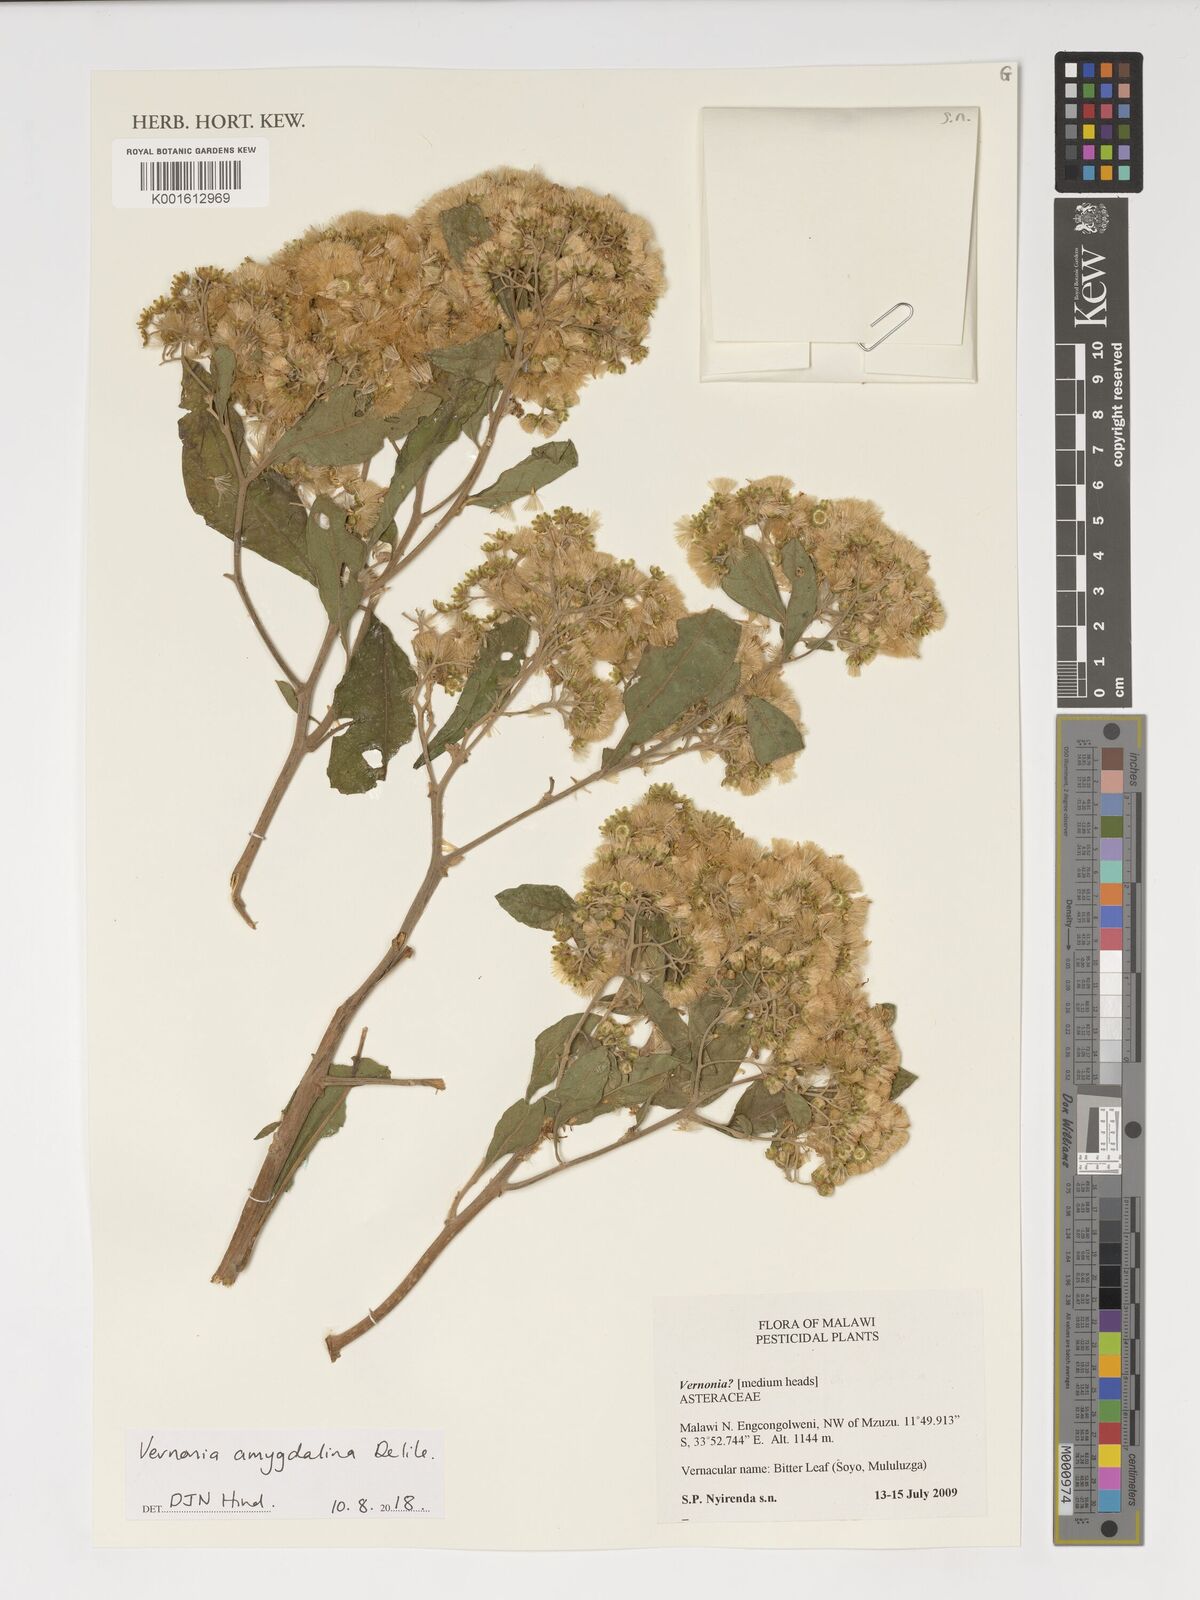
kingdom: Plantae
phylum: Tracheophyta
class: Magnoliopsida
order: Asterales
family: Asteraceae
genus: Gymnanthemum
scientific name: Gymnanthemum amygdalinum
